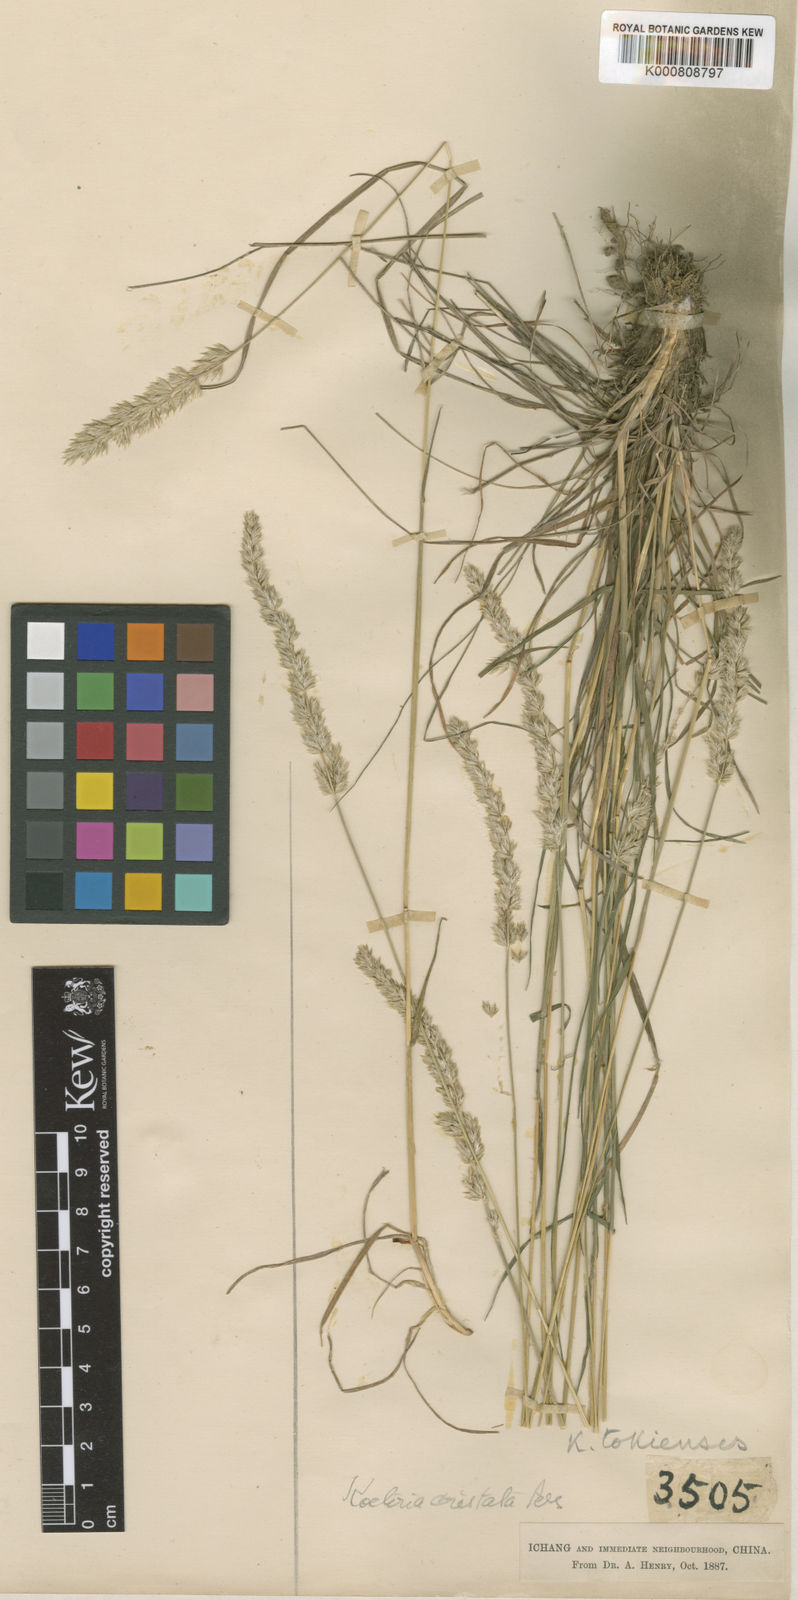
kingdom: Plantae
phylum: Tracheophyta
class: Liliopsida
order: Poales
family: Poaceae
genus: Koeleria
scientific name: Koeleria macrantha
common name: Crested hair-grass
